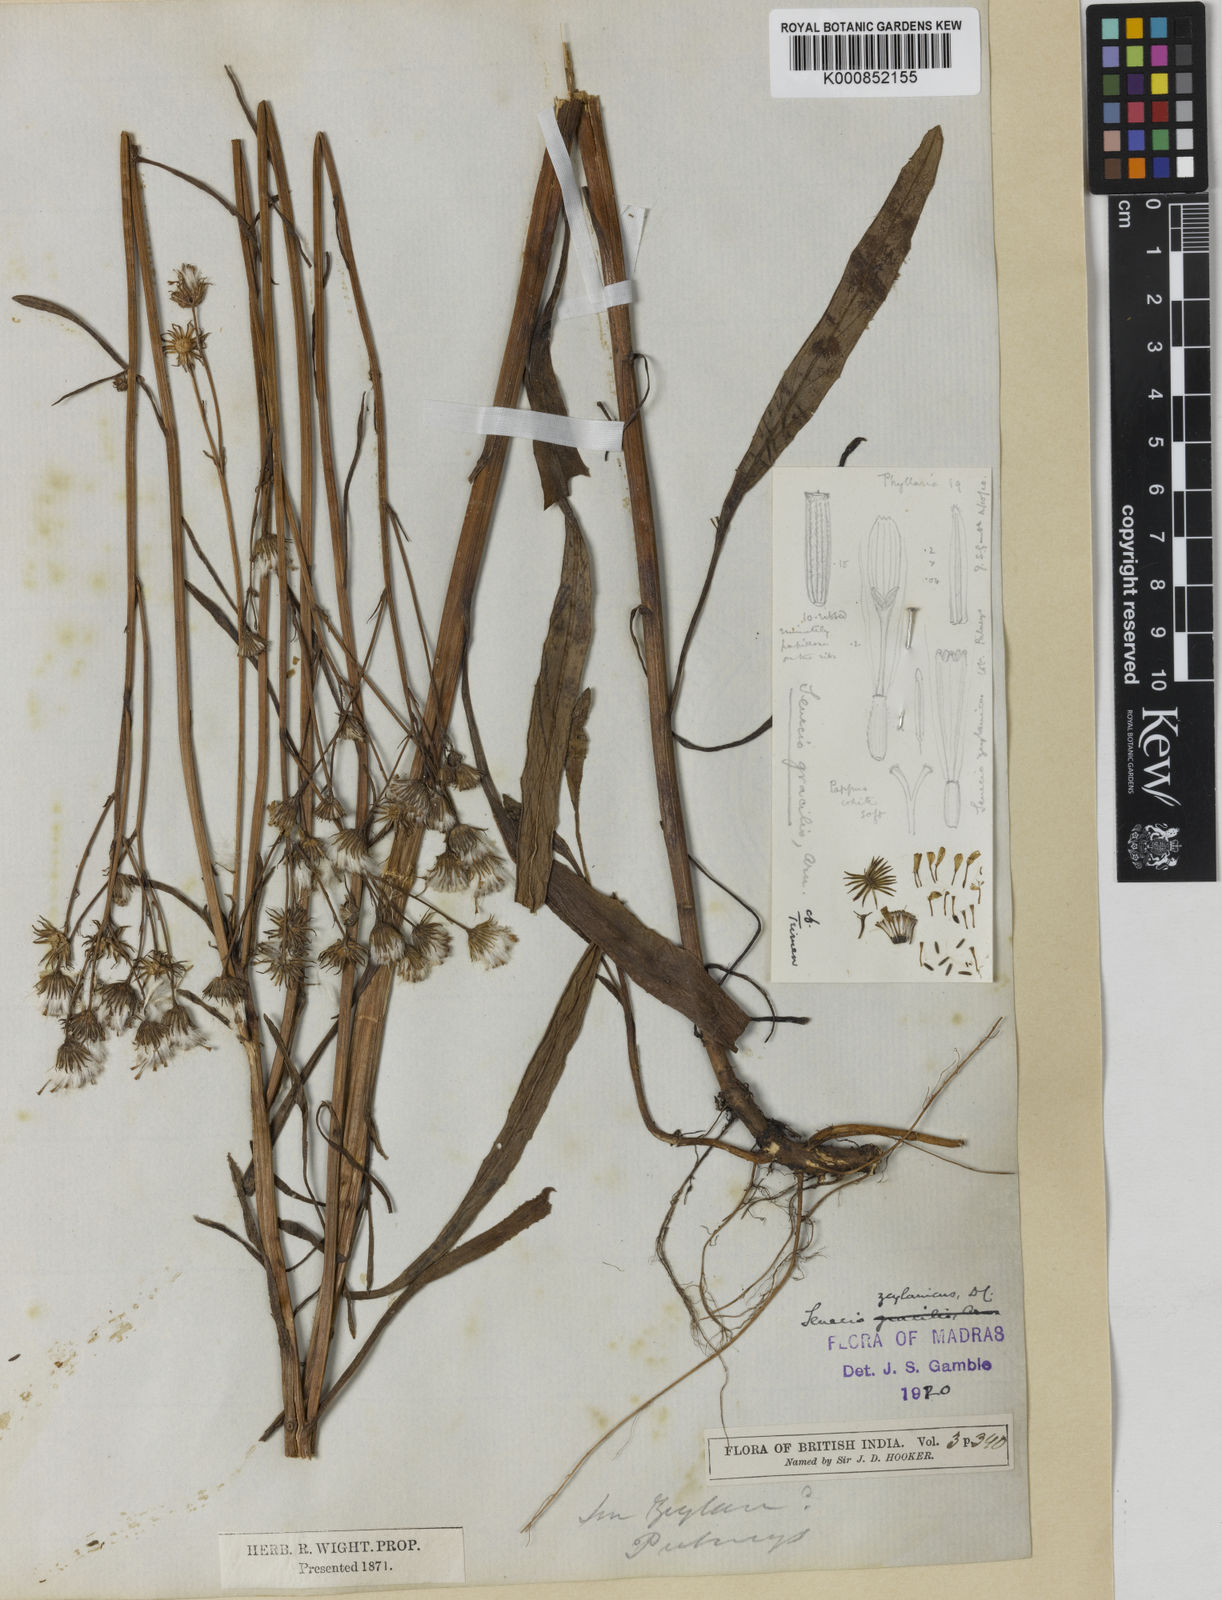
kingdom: Plantae
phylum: Tracheophyta
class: Magnoliopsida
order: Asterales
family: Asteraceae
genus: Senecio
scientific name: Senecio zeylanicus
